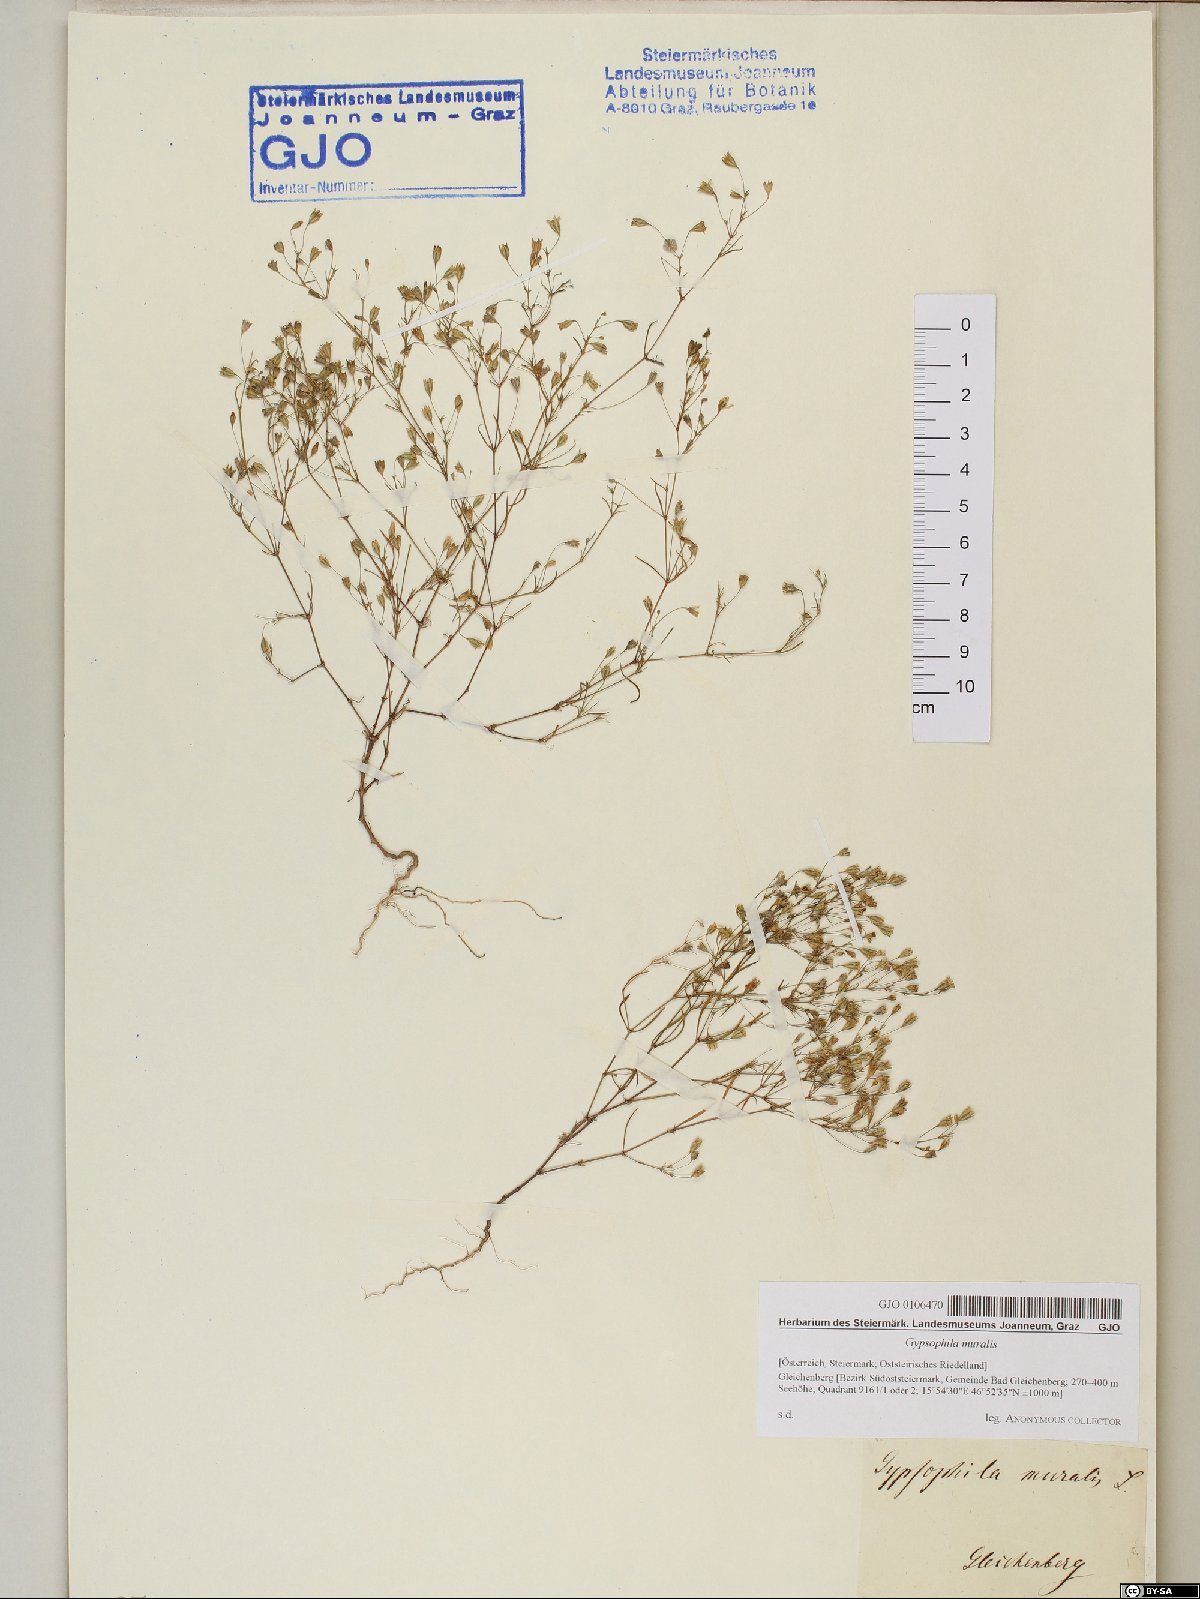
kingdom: Plantae
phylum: Tracheophyta
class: Magnoliopsida
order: Caryophyllales
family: Caryophyllaceae
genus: Psammophiliella
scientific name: Psammophiliella muralis
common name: Cushion baby's-breath
